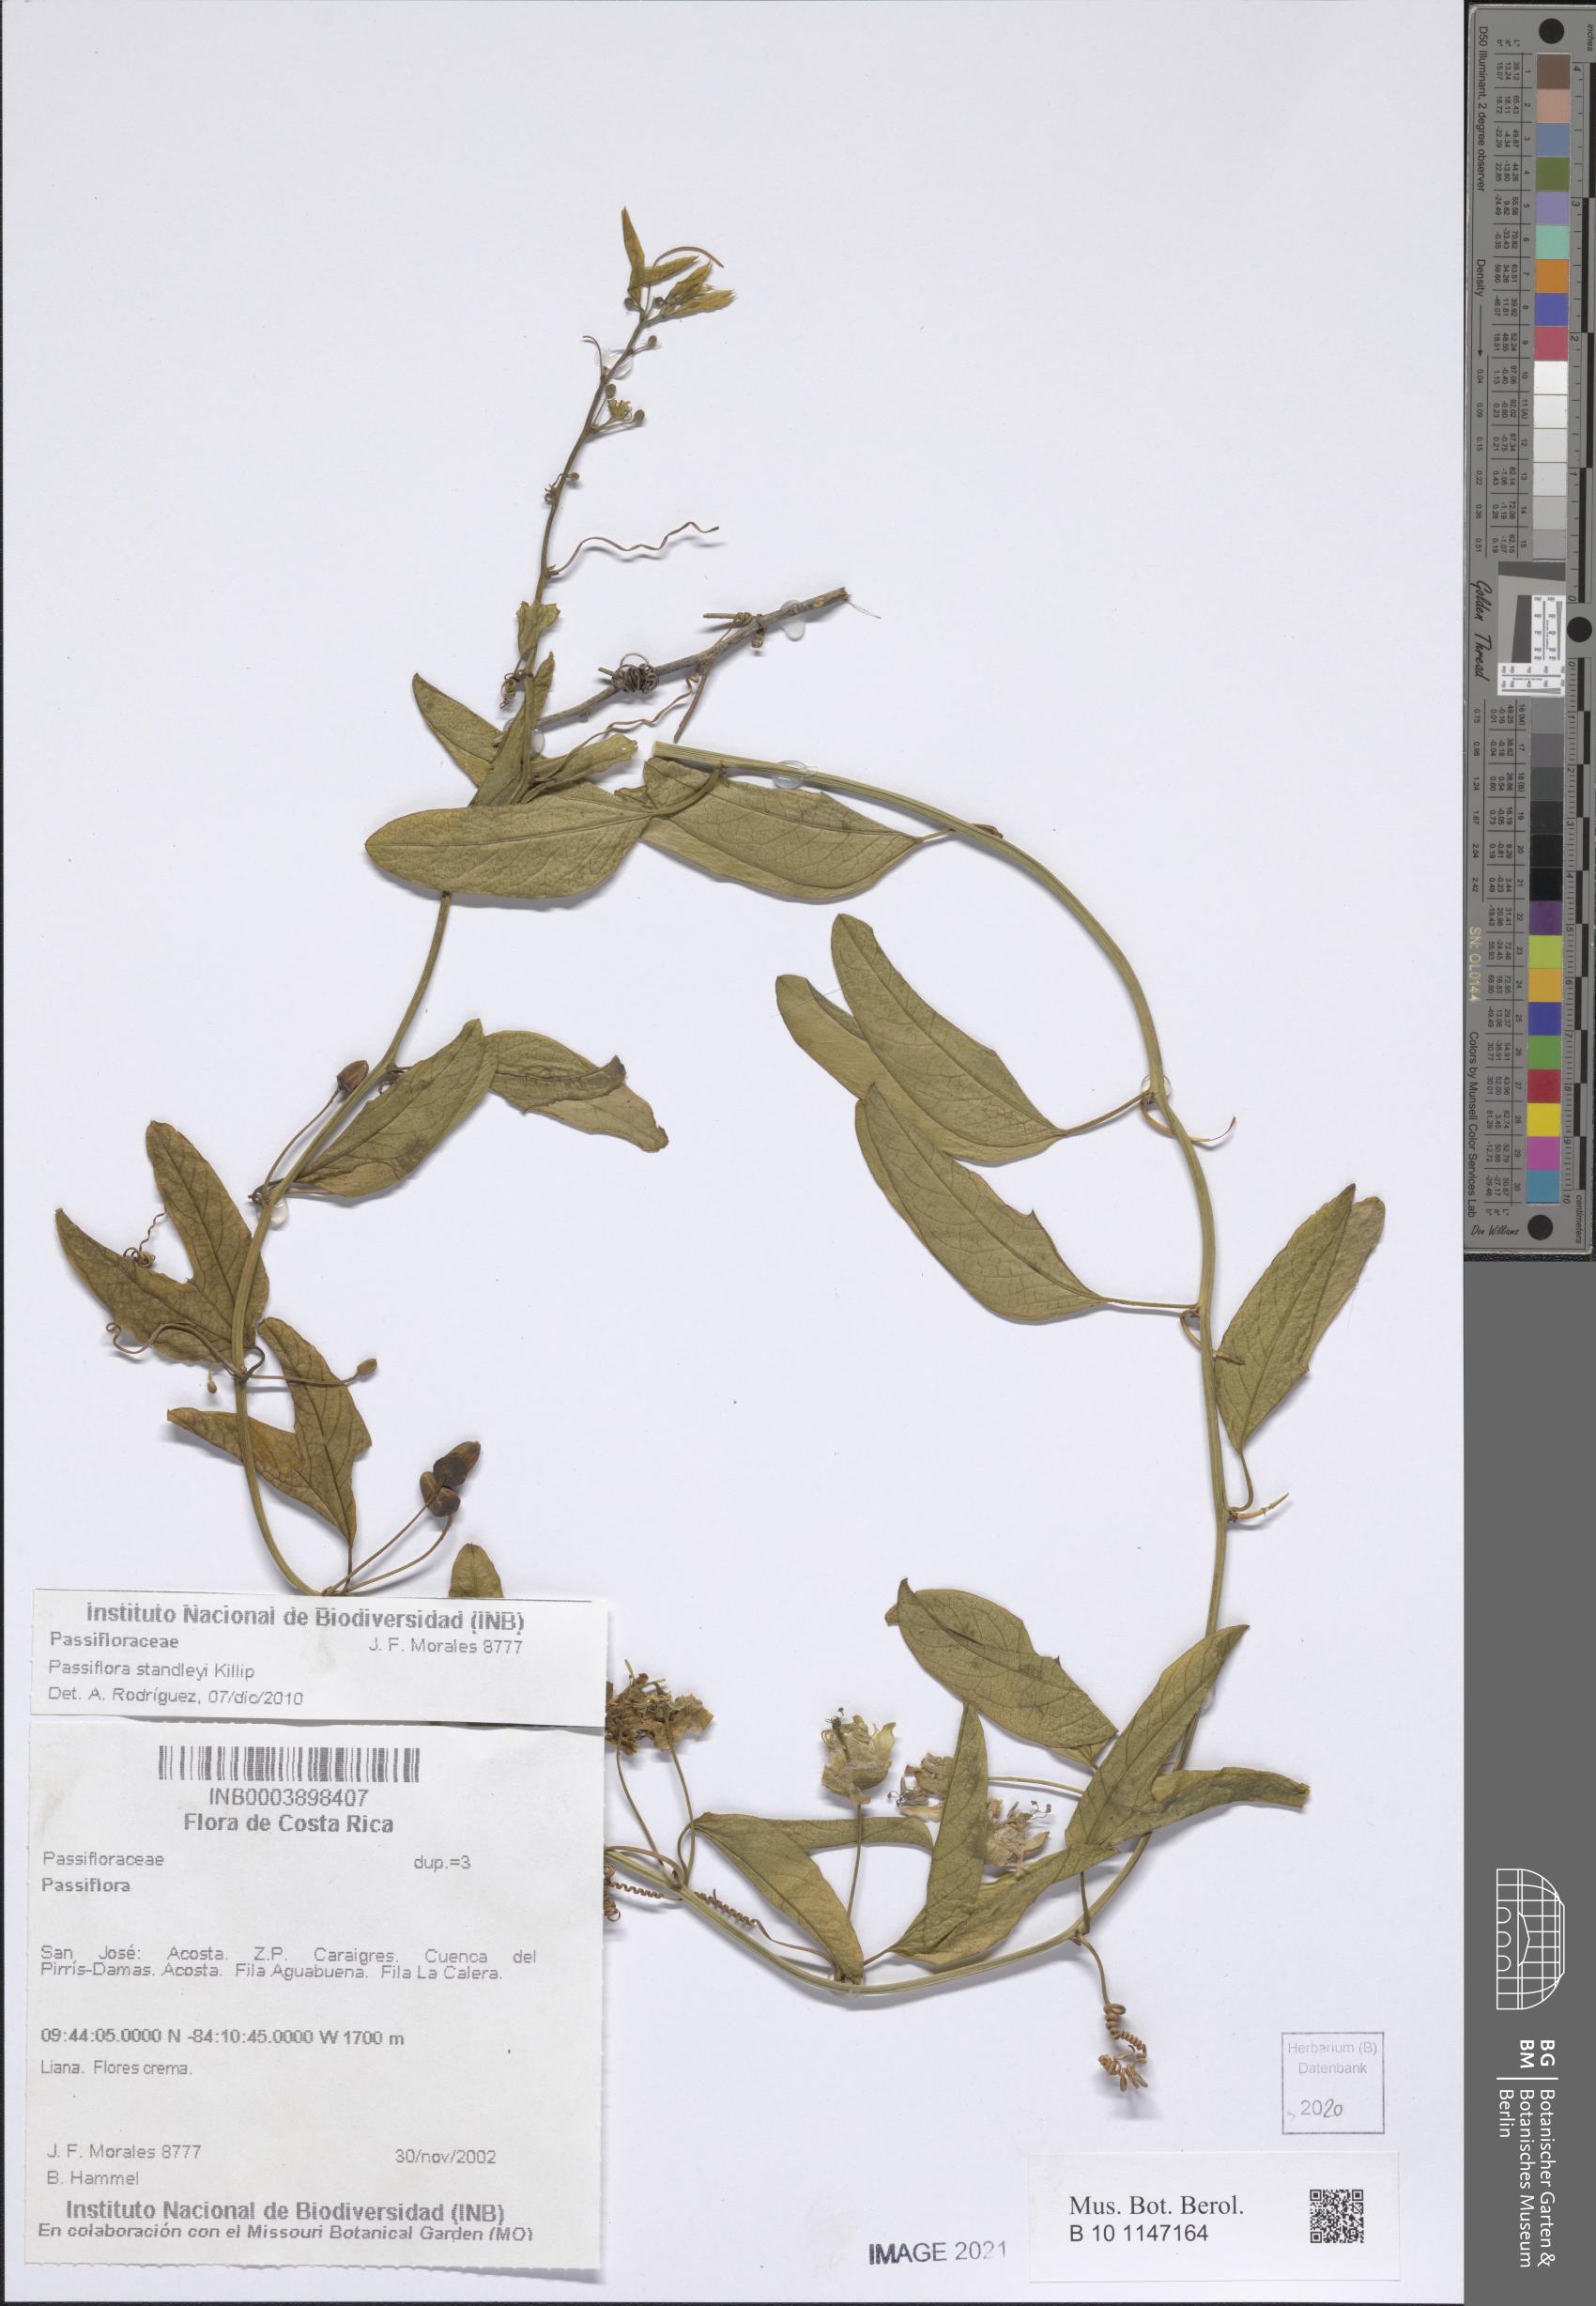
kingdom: Plantae
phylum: Tracheophyta
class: Magnoliopsida
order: Malpighiales
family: Passifloraceae
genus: Passiflora
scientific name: Passiflora standleyi
